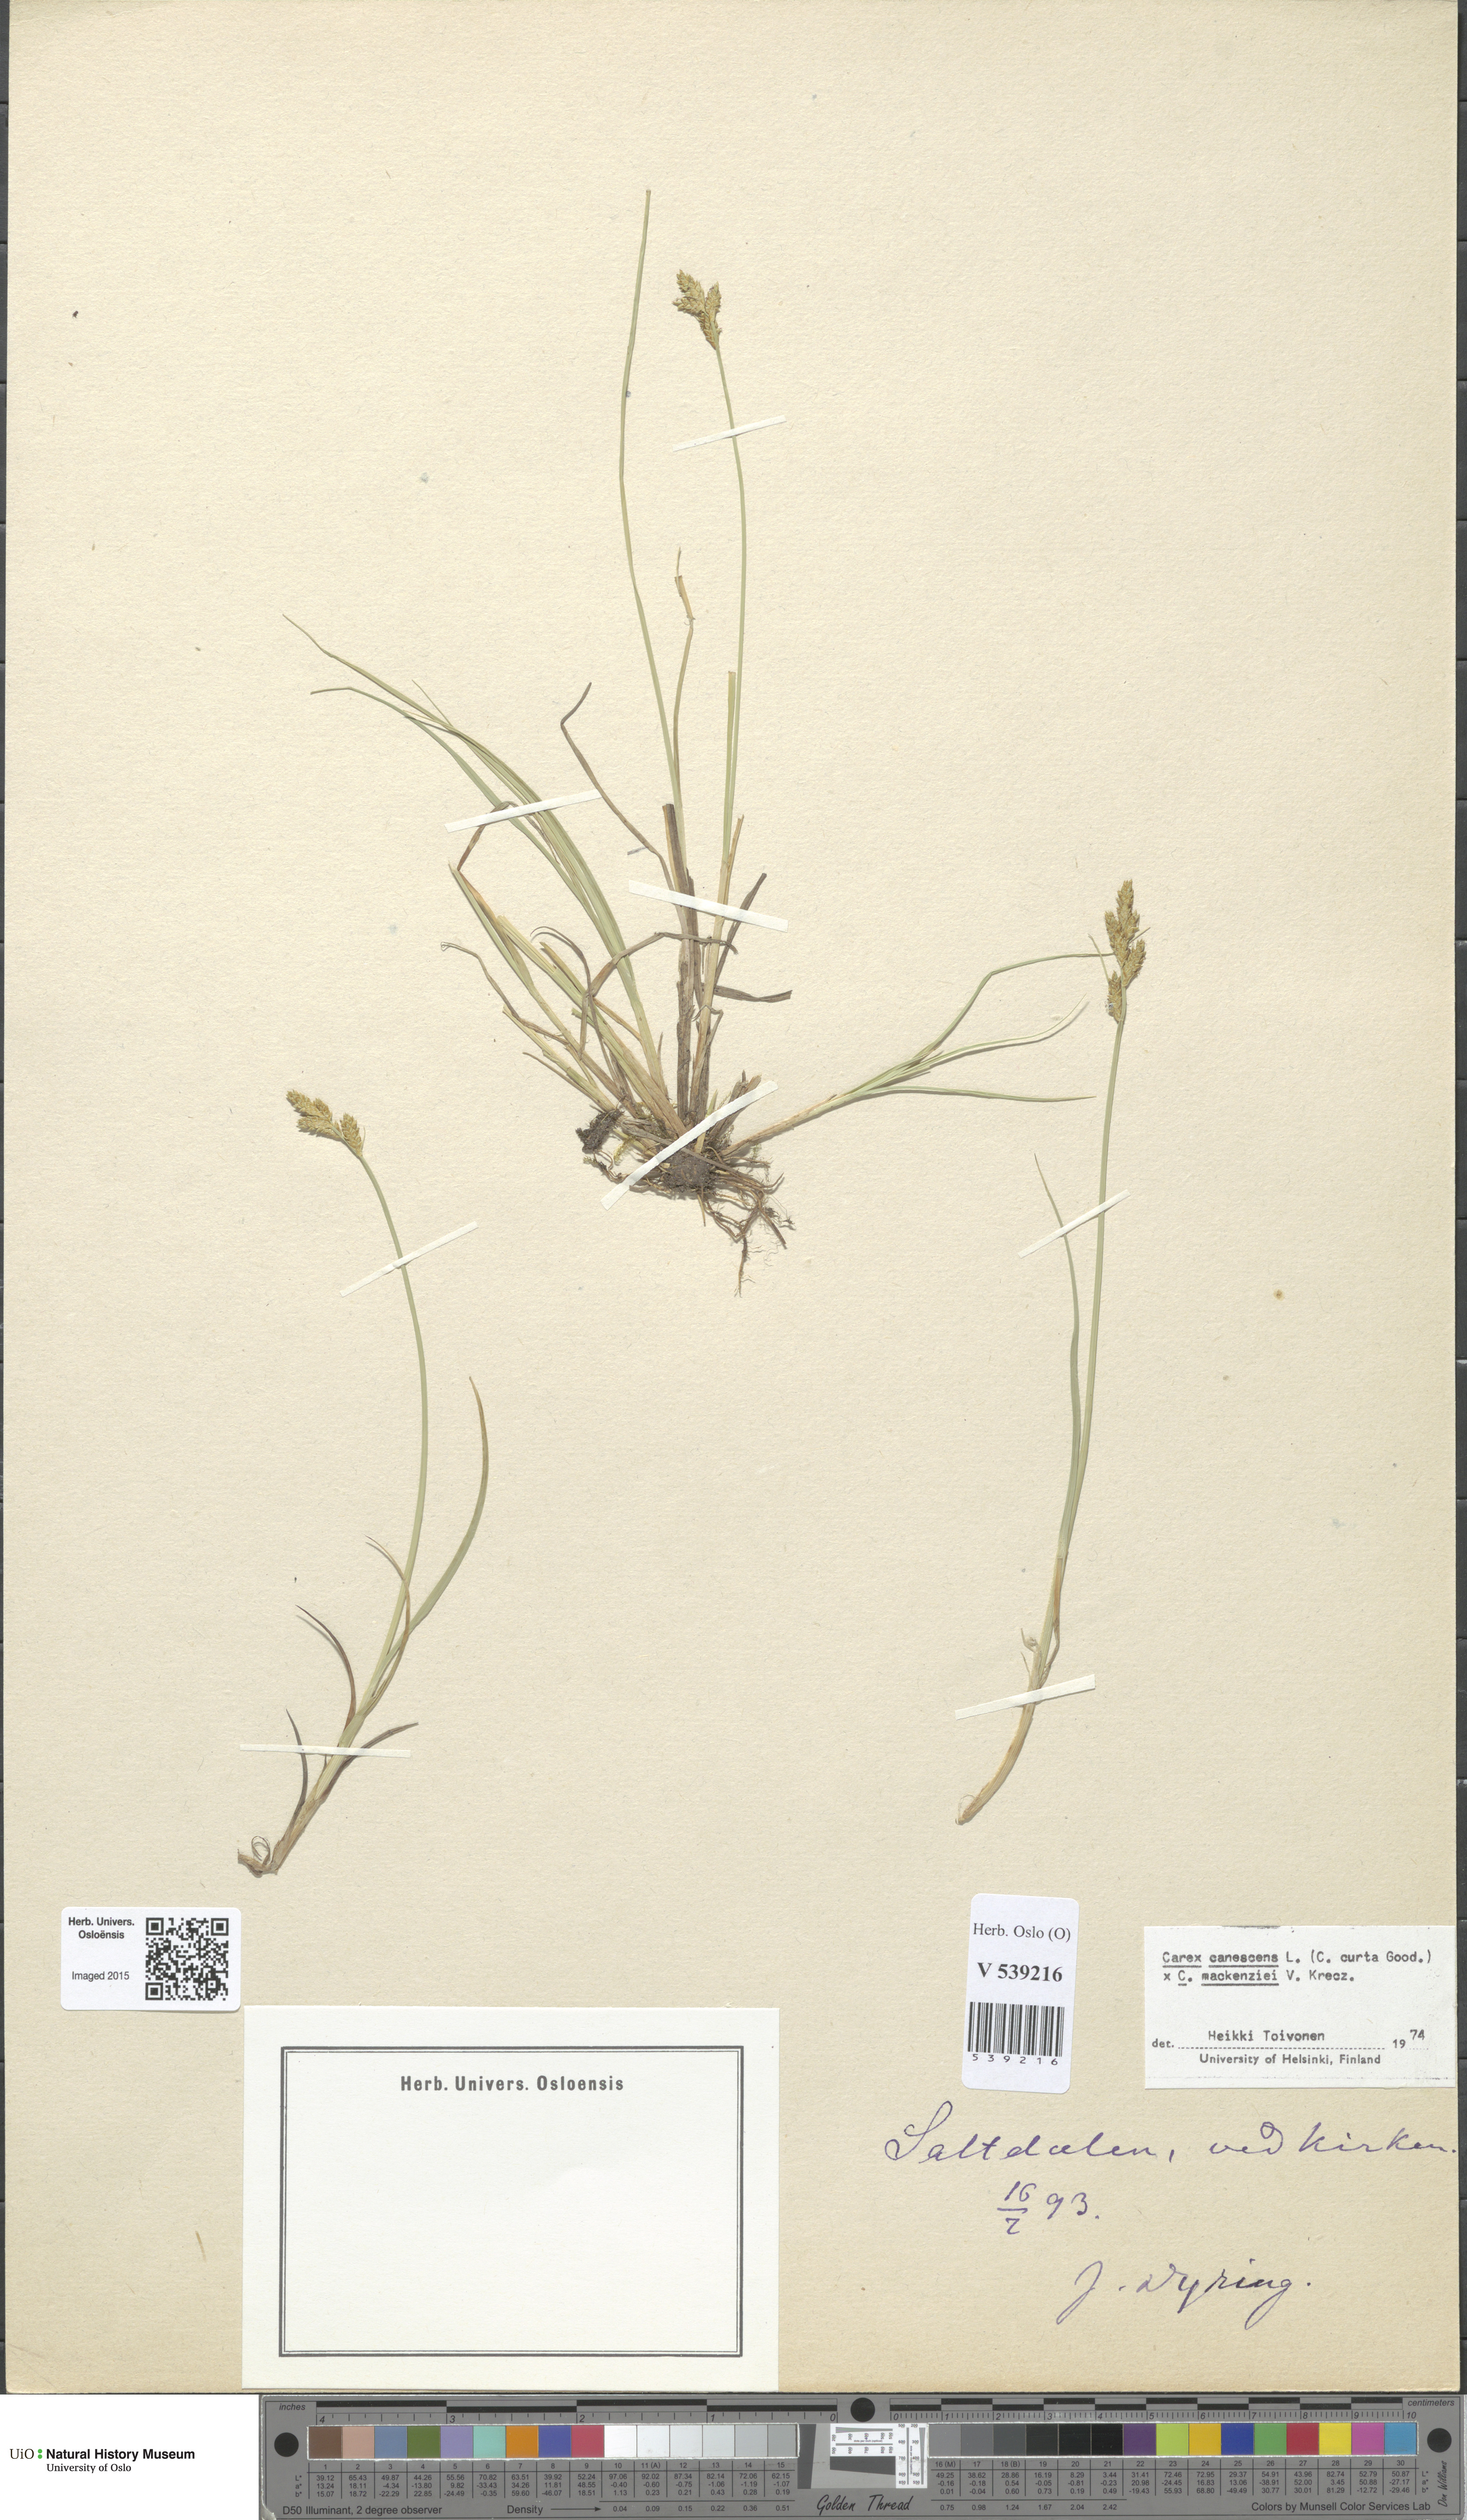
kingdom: Plantae
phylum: Tracheophyta
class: Liliopsida
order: Poales
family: Cyperaceae
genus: Carex
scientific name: Carex
